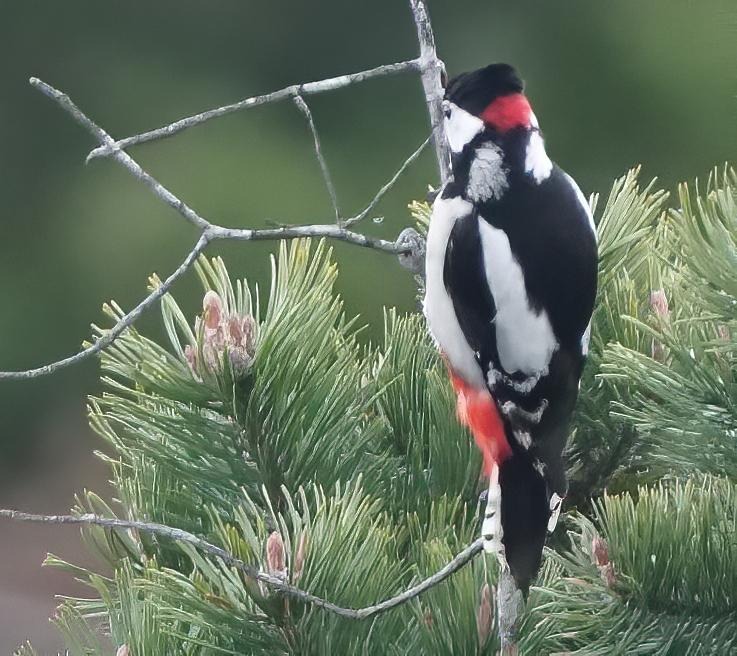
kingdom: Animalia
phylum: Chordata
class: Aves
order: Piciformes
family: Picidae
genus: Dendrocopos
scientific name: Dendrocopos major
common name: Stor flagspætte
